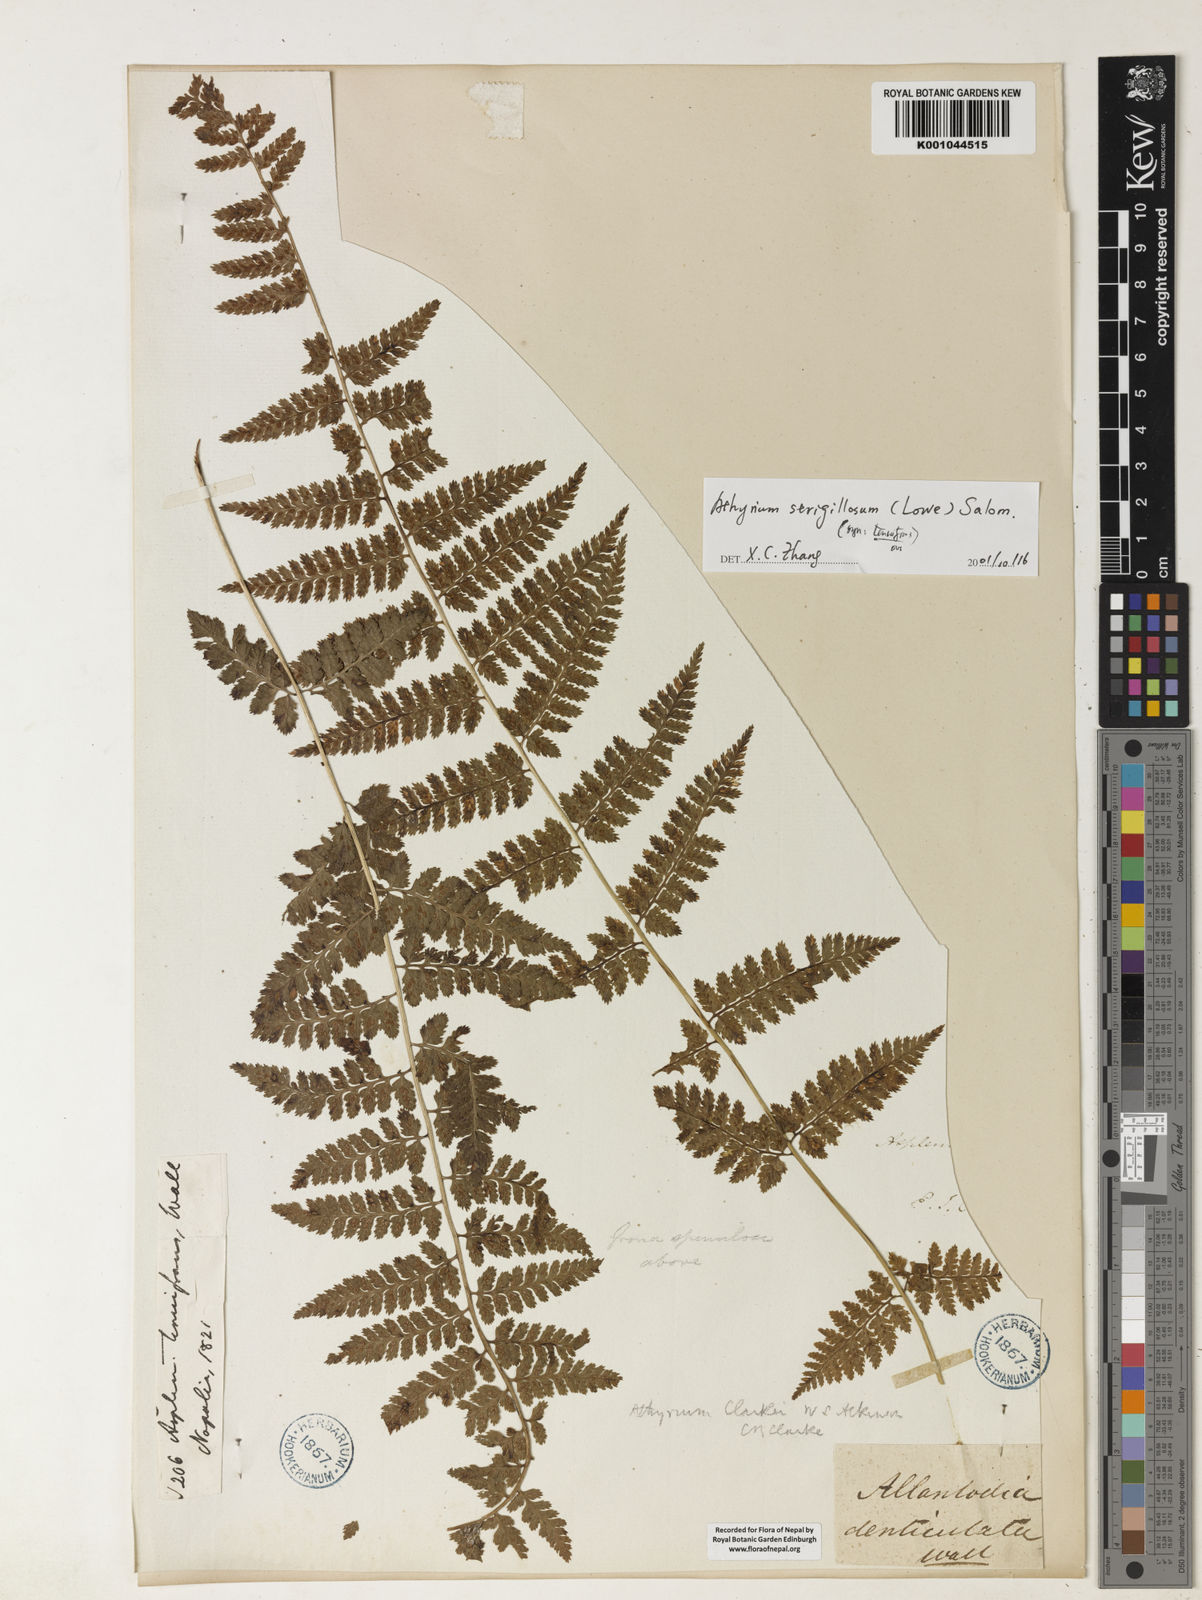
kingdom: Plantae
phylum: Tracheophyta
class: Polypodiopsida
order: Polypodiales
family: Athyriaceae
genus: Athyrium
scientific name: Athyrium nigripes
